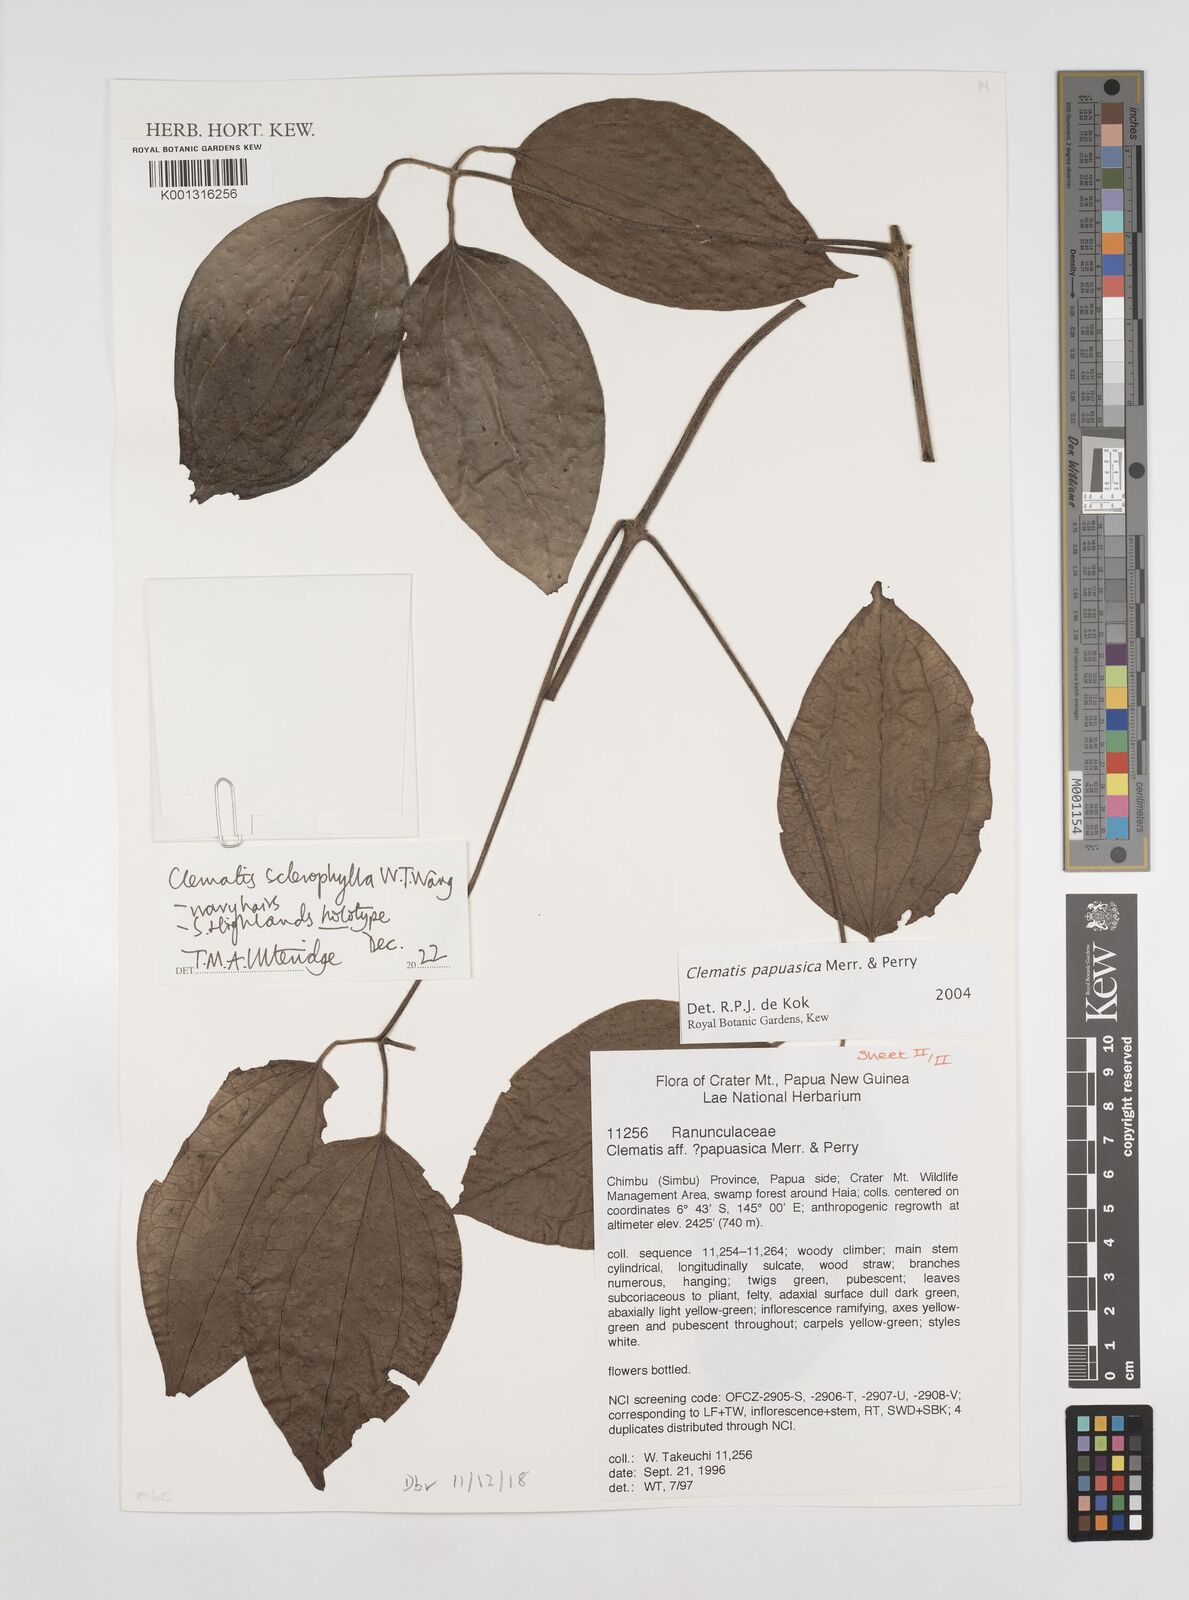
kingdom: Plantae
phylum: Tracheophyta
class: Magnoliopsida
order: Ranunculales
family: Ranunculaceae
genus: Clematis
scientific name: Clematis sclerophylla
